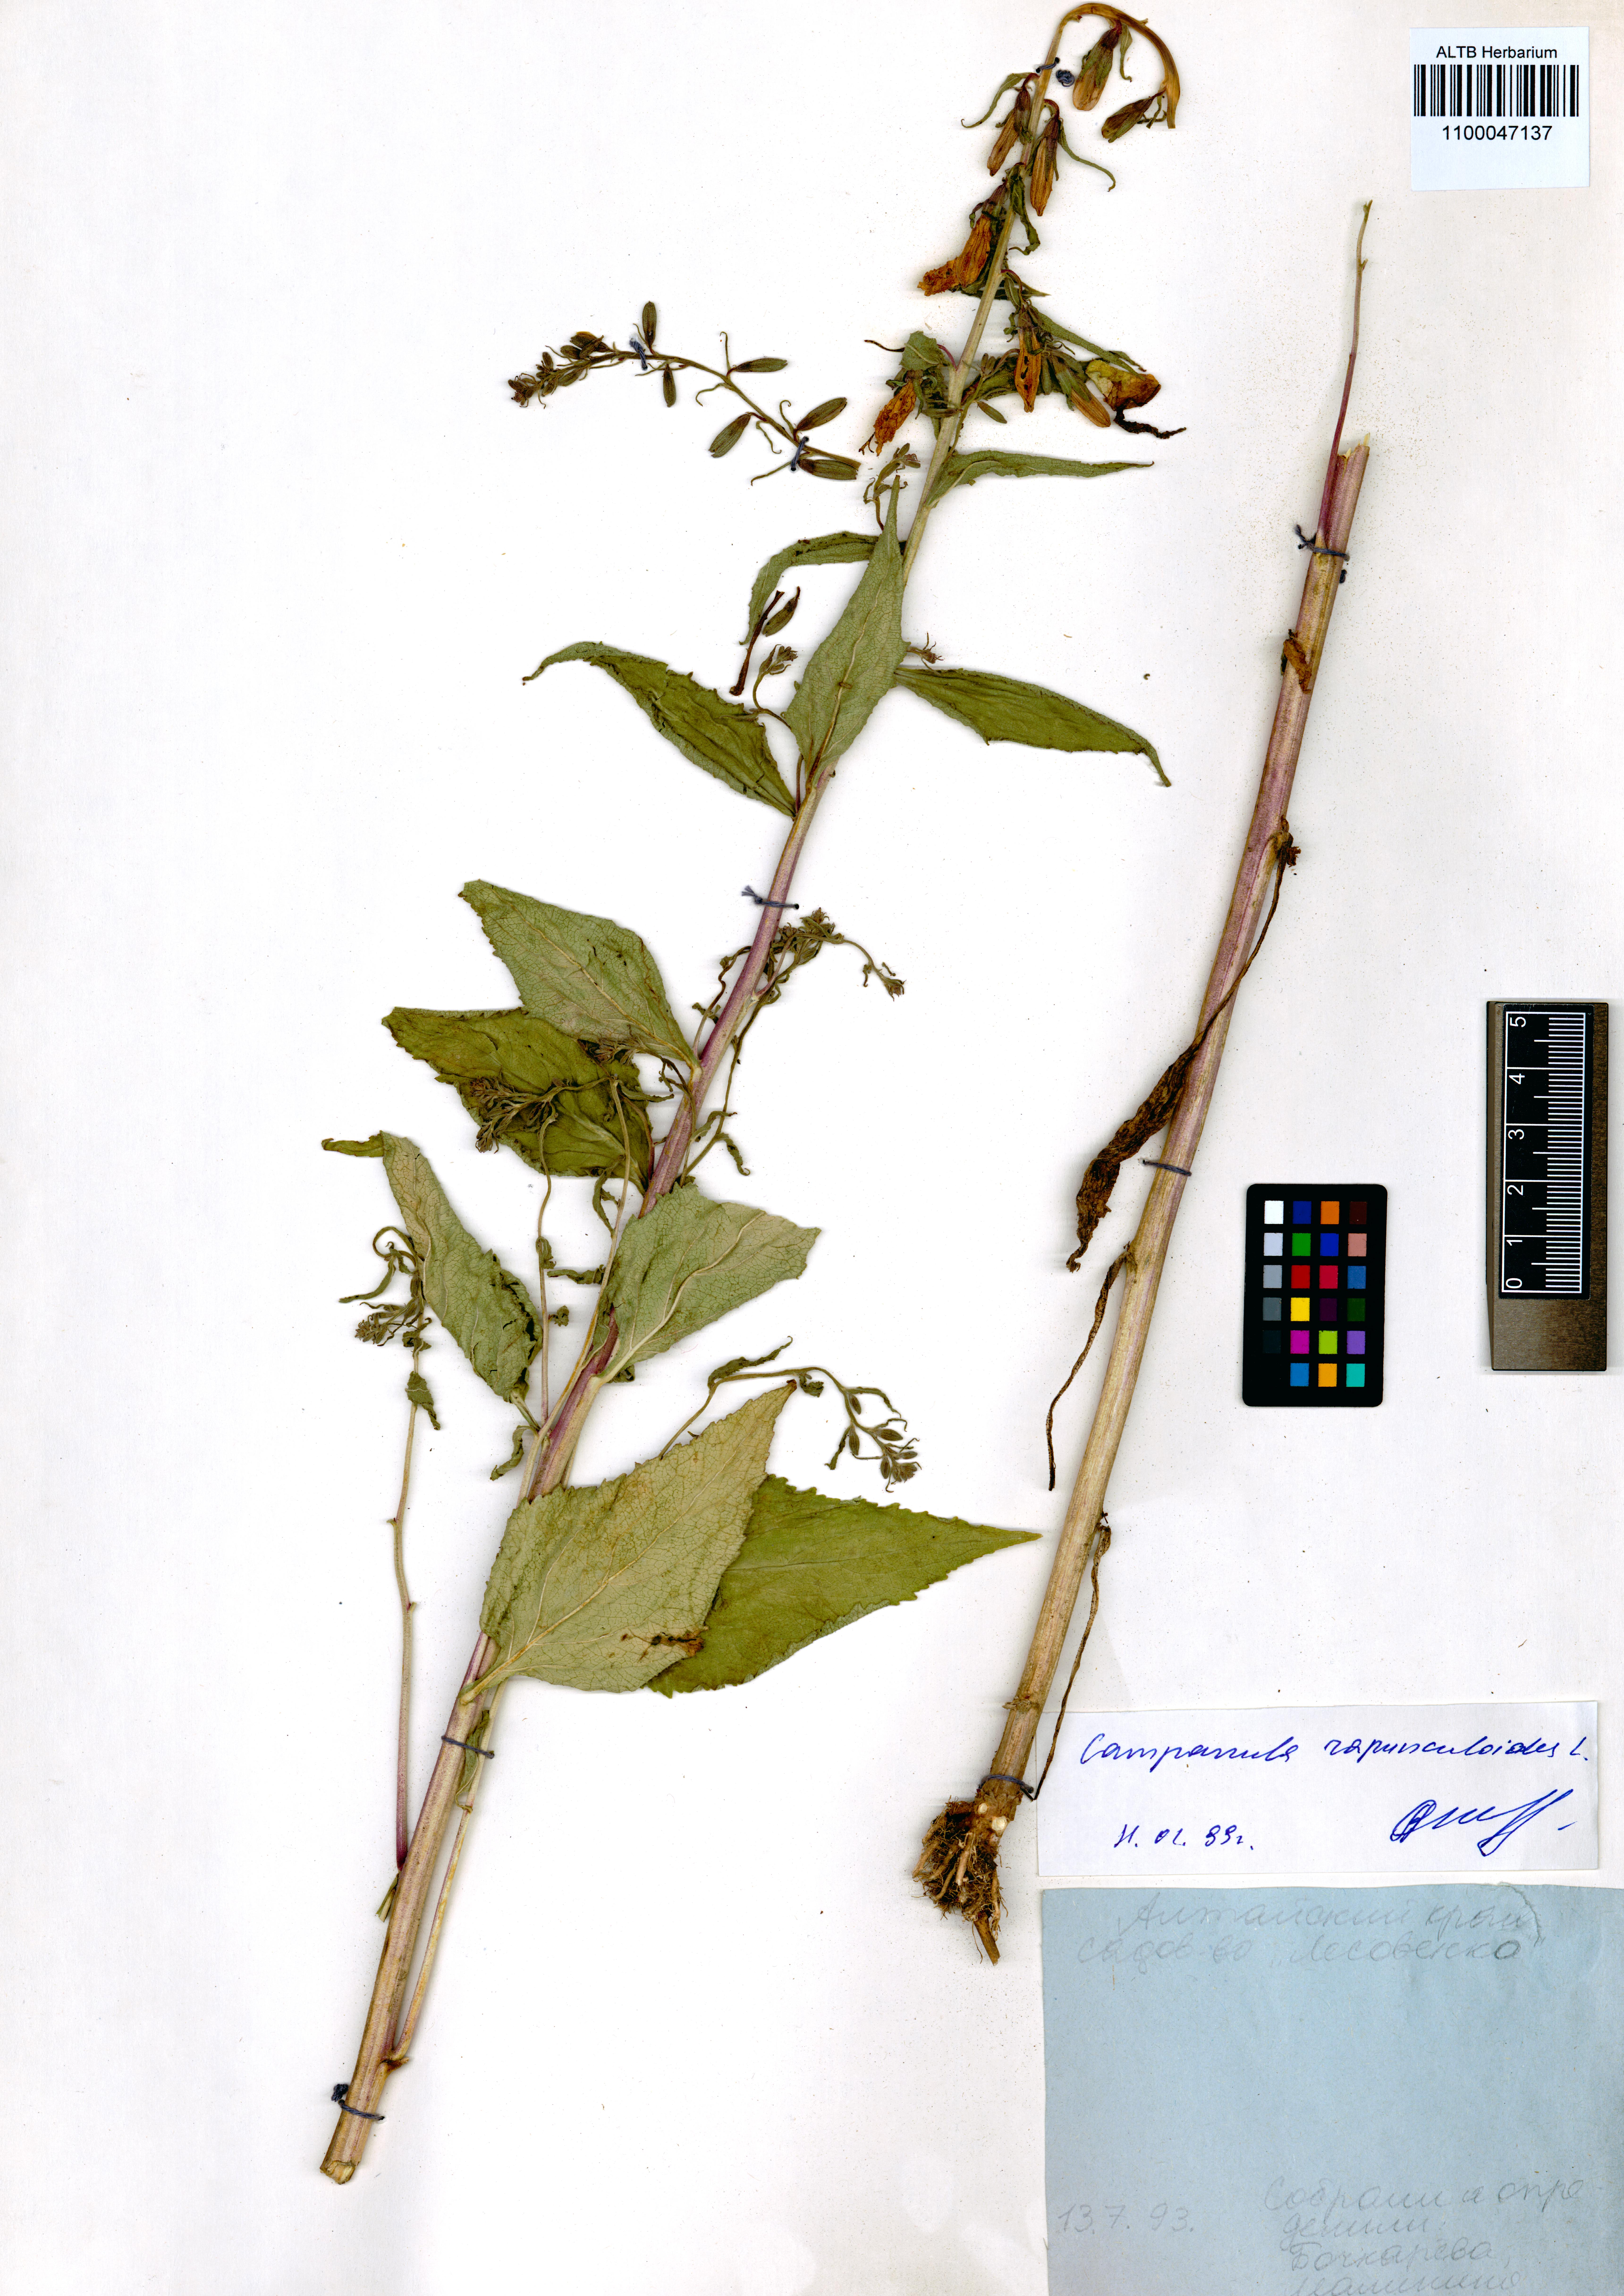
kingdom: Plantae
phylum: Tracheophyta
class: Magnoliopsida
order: Asterales
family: Campanulaceae
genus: Campanula
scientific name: Campanula rapunculoides
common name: Creeping bellflower
